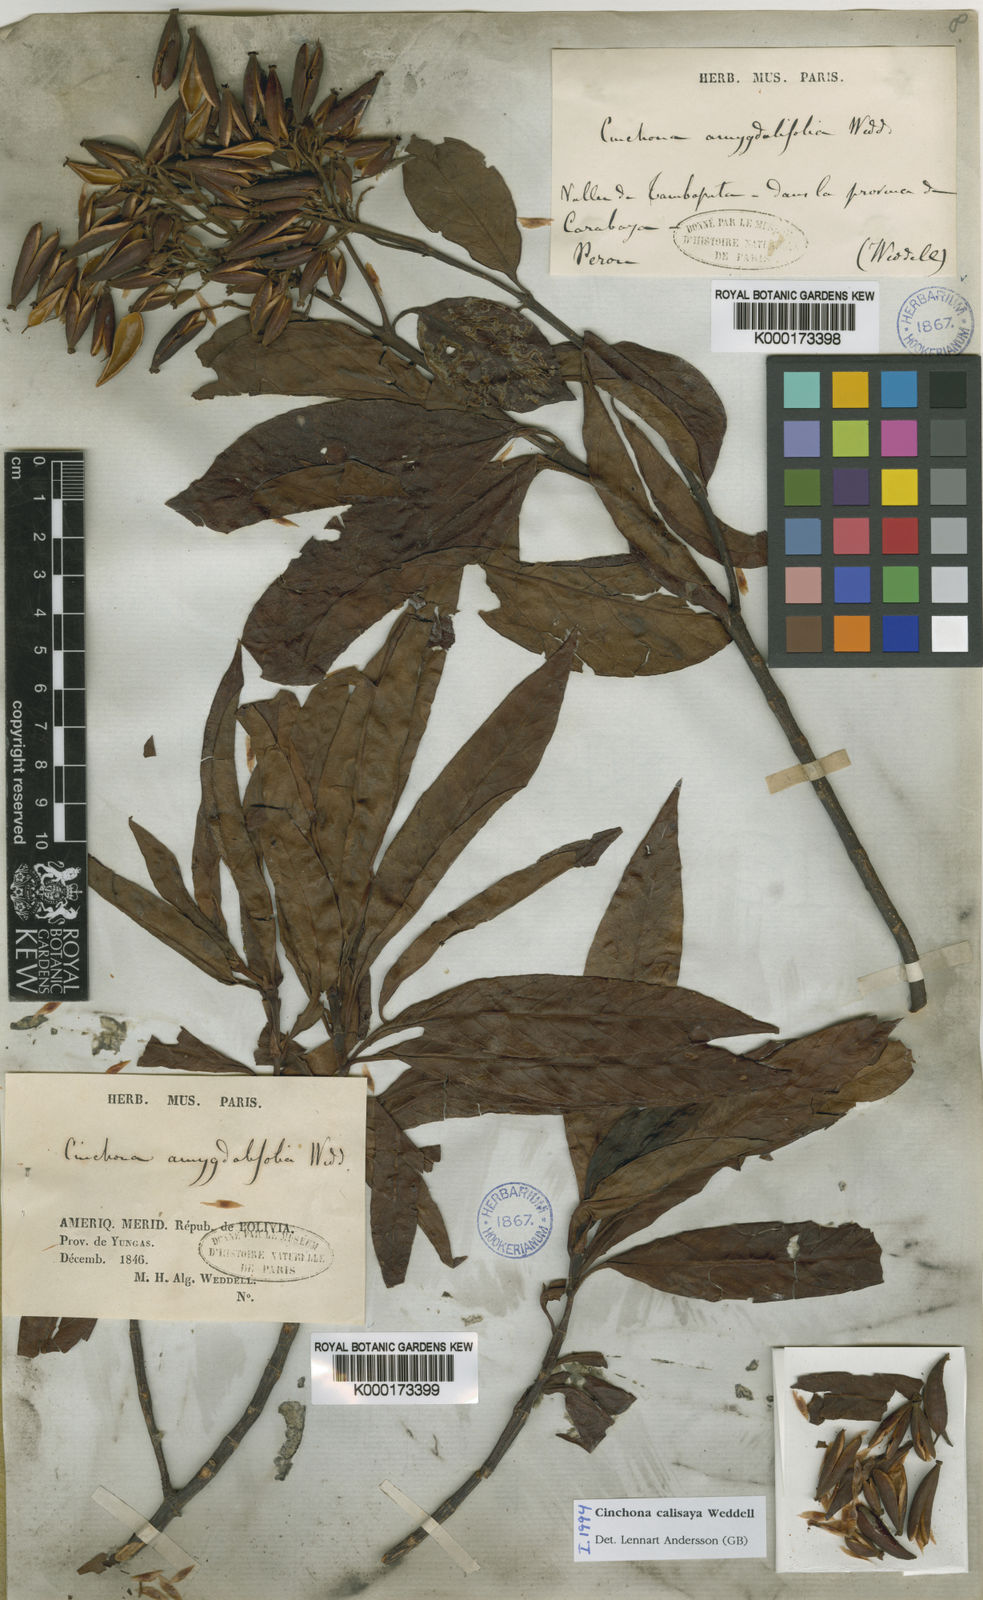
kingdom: Plantae
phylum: Tracheophyta
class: Magnoliopsida
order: Gentianales
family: Rubiaceae
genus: Cinchona
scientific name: Cinchona calisaya
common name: Ledgerbark
